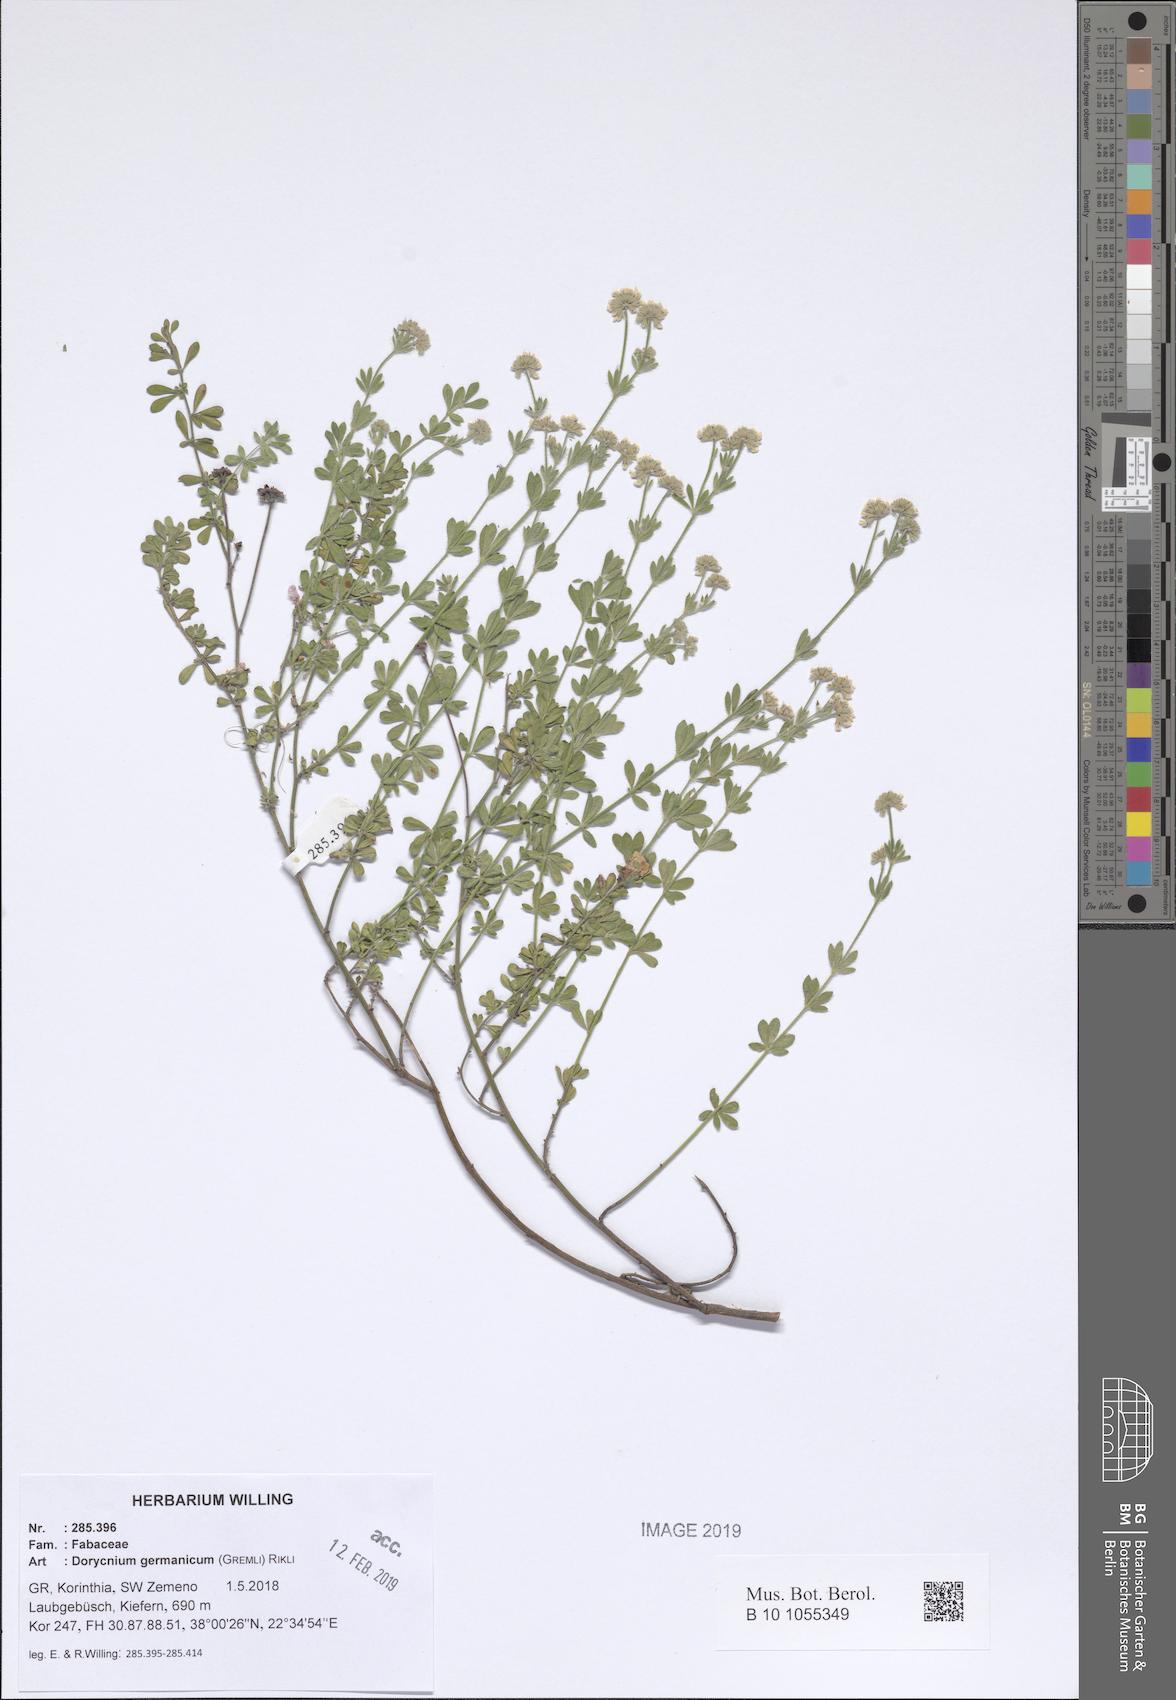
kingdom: Plantae
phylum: Tracheophyta
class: Magnoliopsida
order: Fabales
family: Fabaceae
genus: Lotus
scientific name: Lotus germanicus
